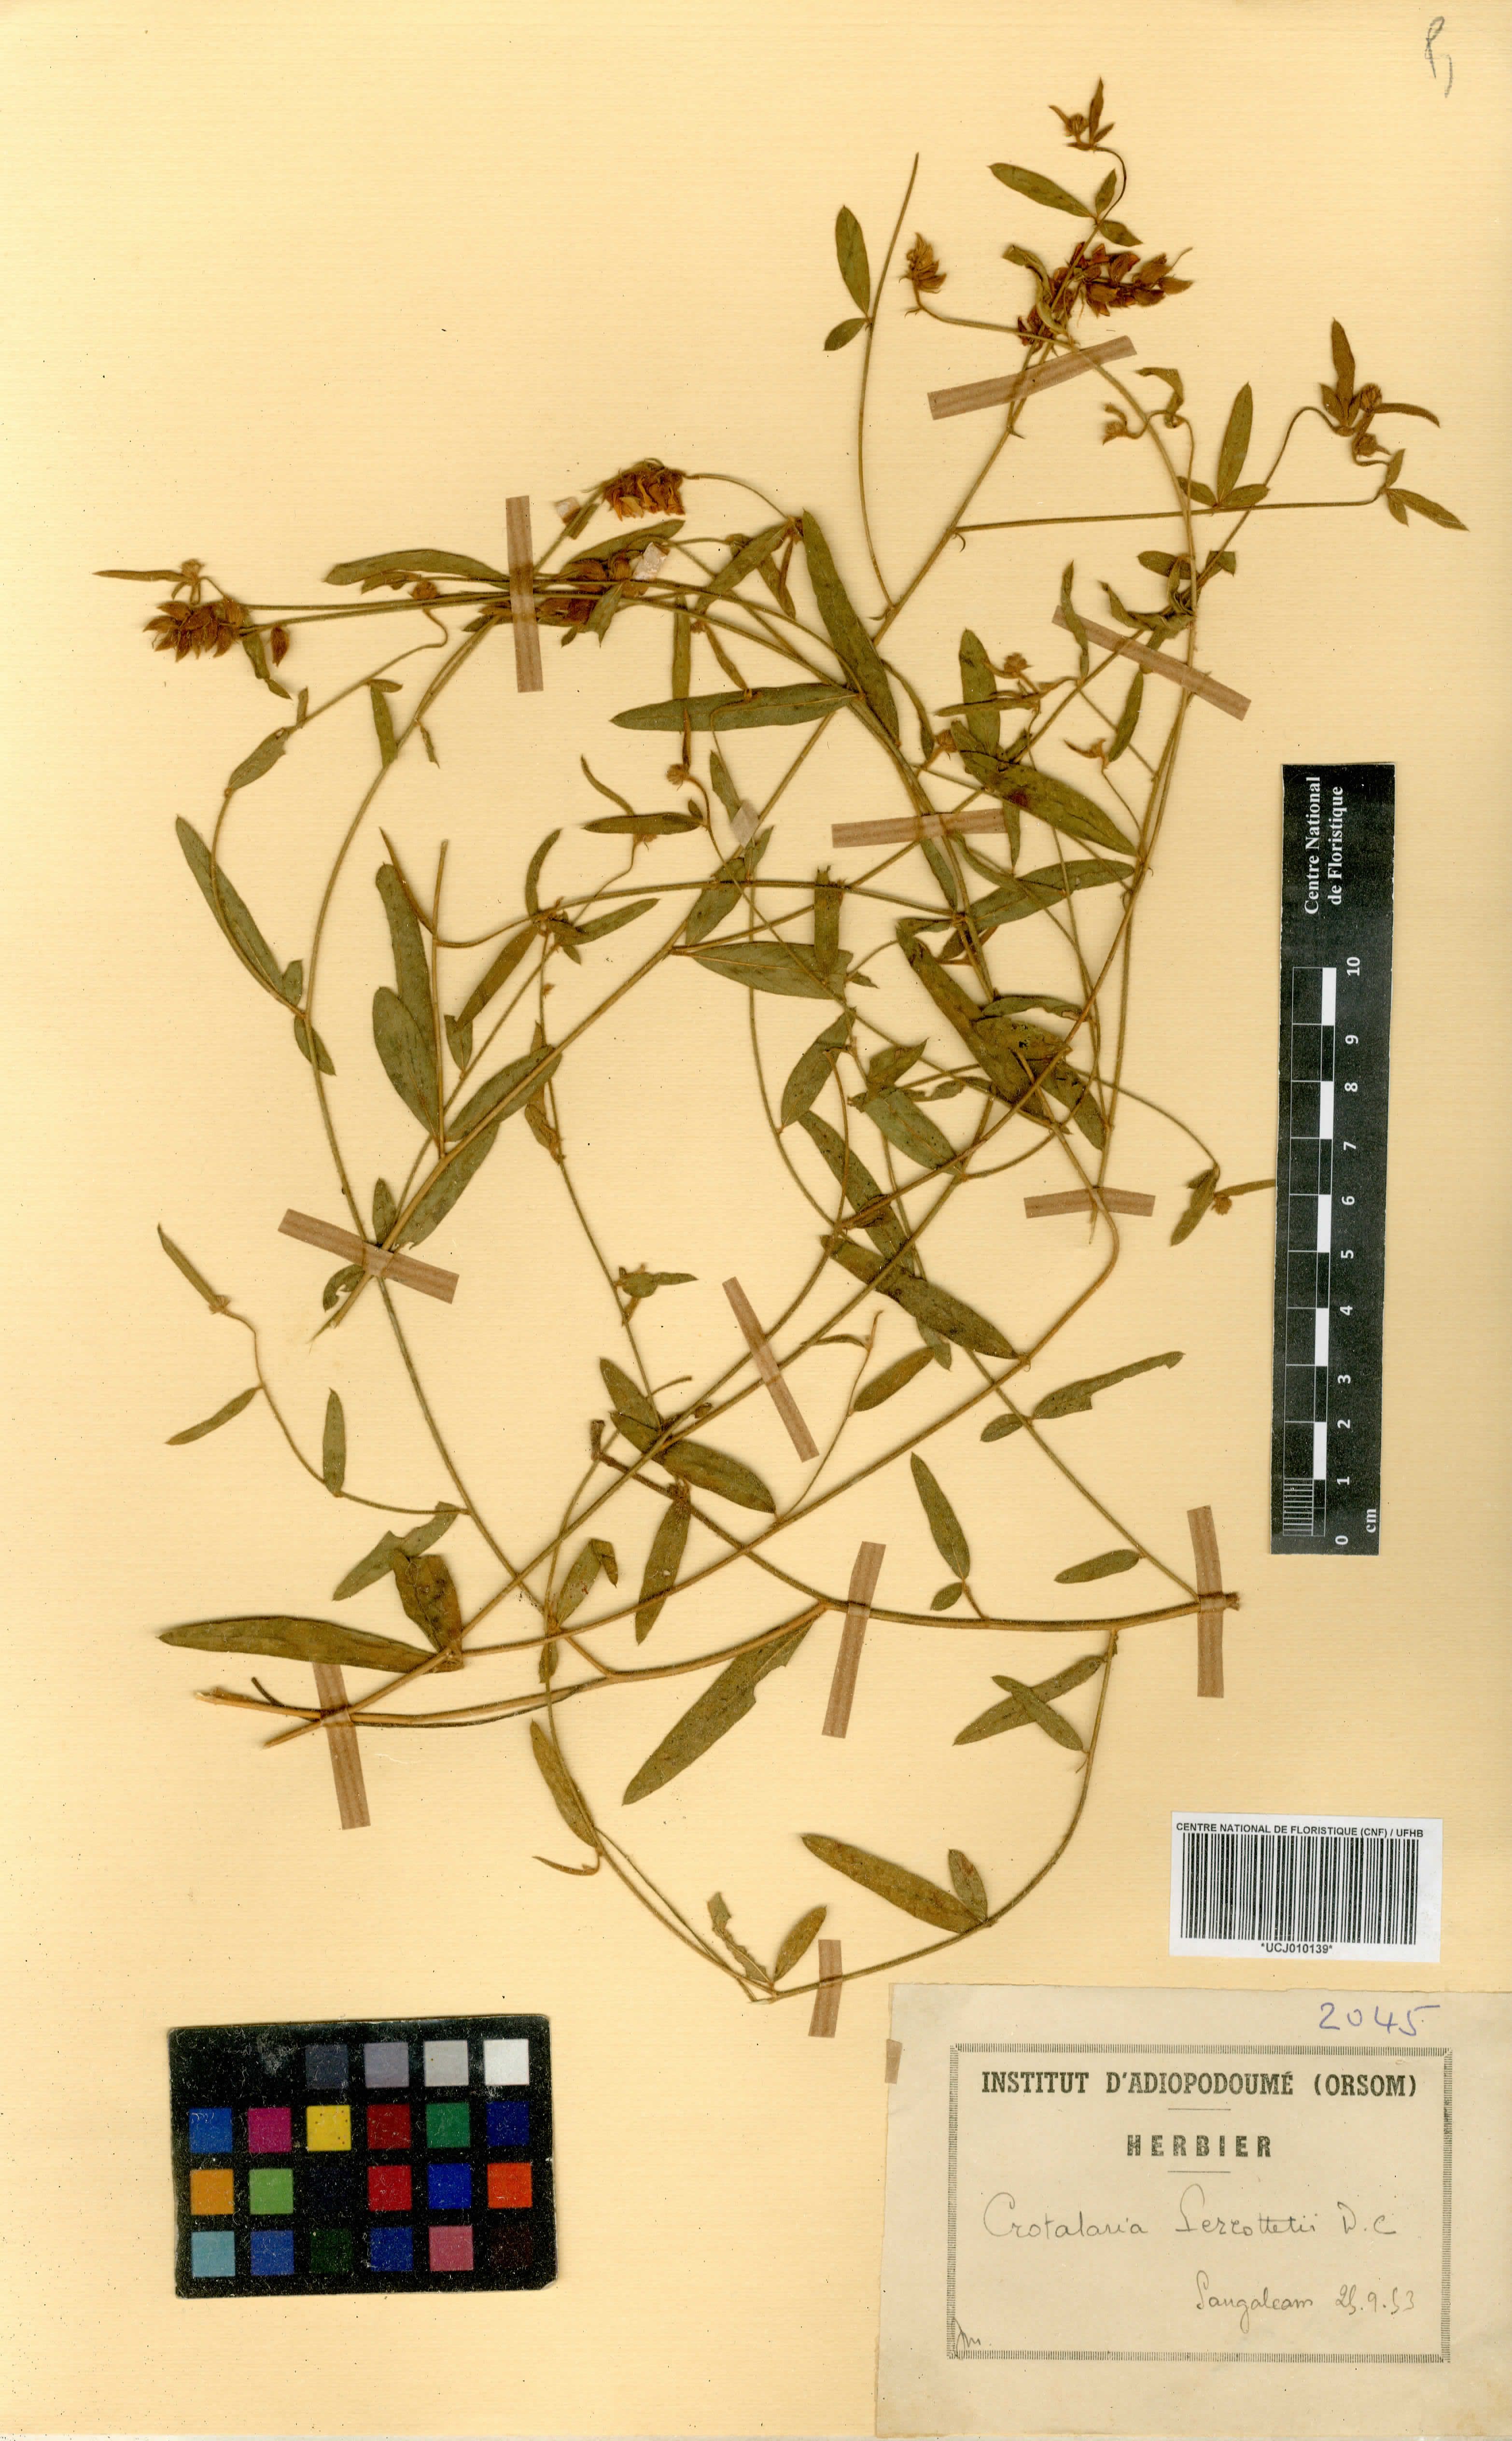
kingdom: Plantae
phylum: Tracheophyta
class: Magnoliopsida
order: Fabales
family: Fabaceae
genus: Crotalaria
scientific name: Crotalaria perrottetii
